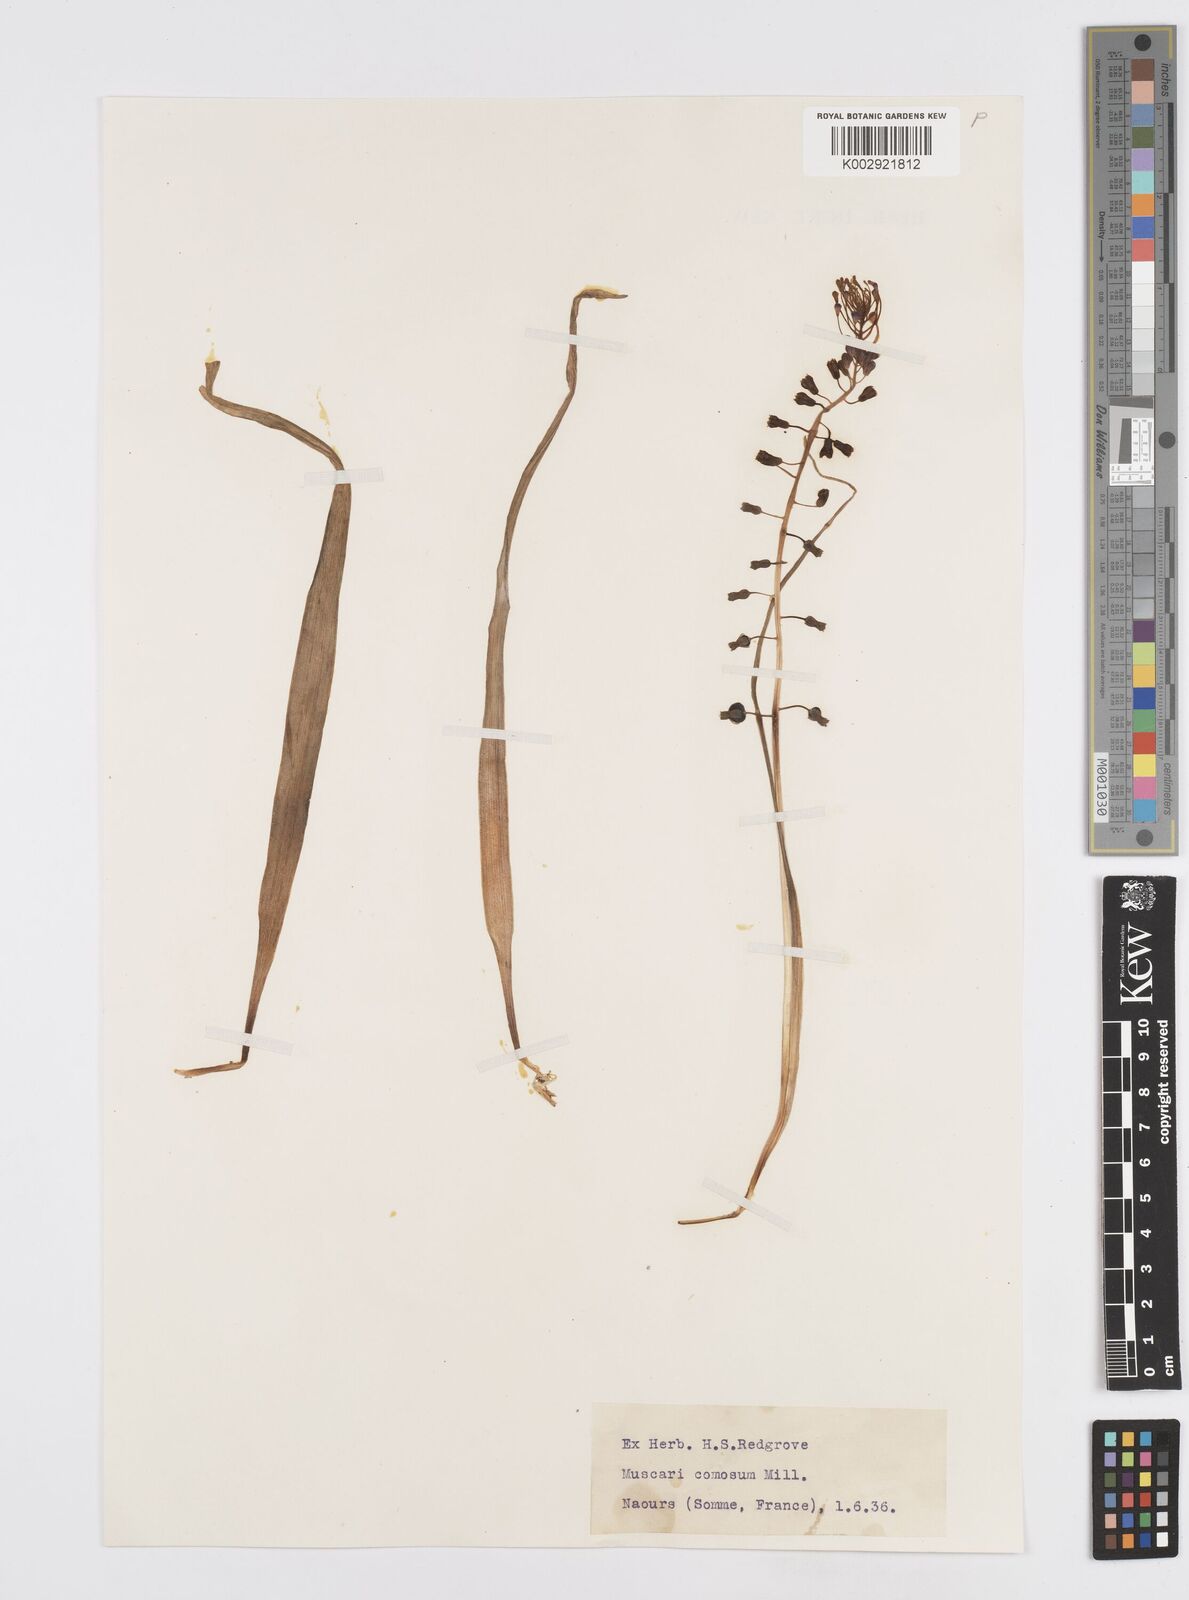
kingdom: Plantae
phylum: Tracheophyta
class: Liliopsida
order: Asparagales
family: Asparagaceae
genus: Muscari
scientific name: Muscari comosum
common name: Tassel hyacinth
